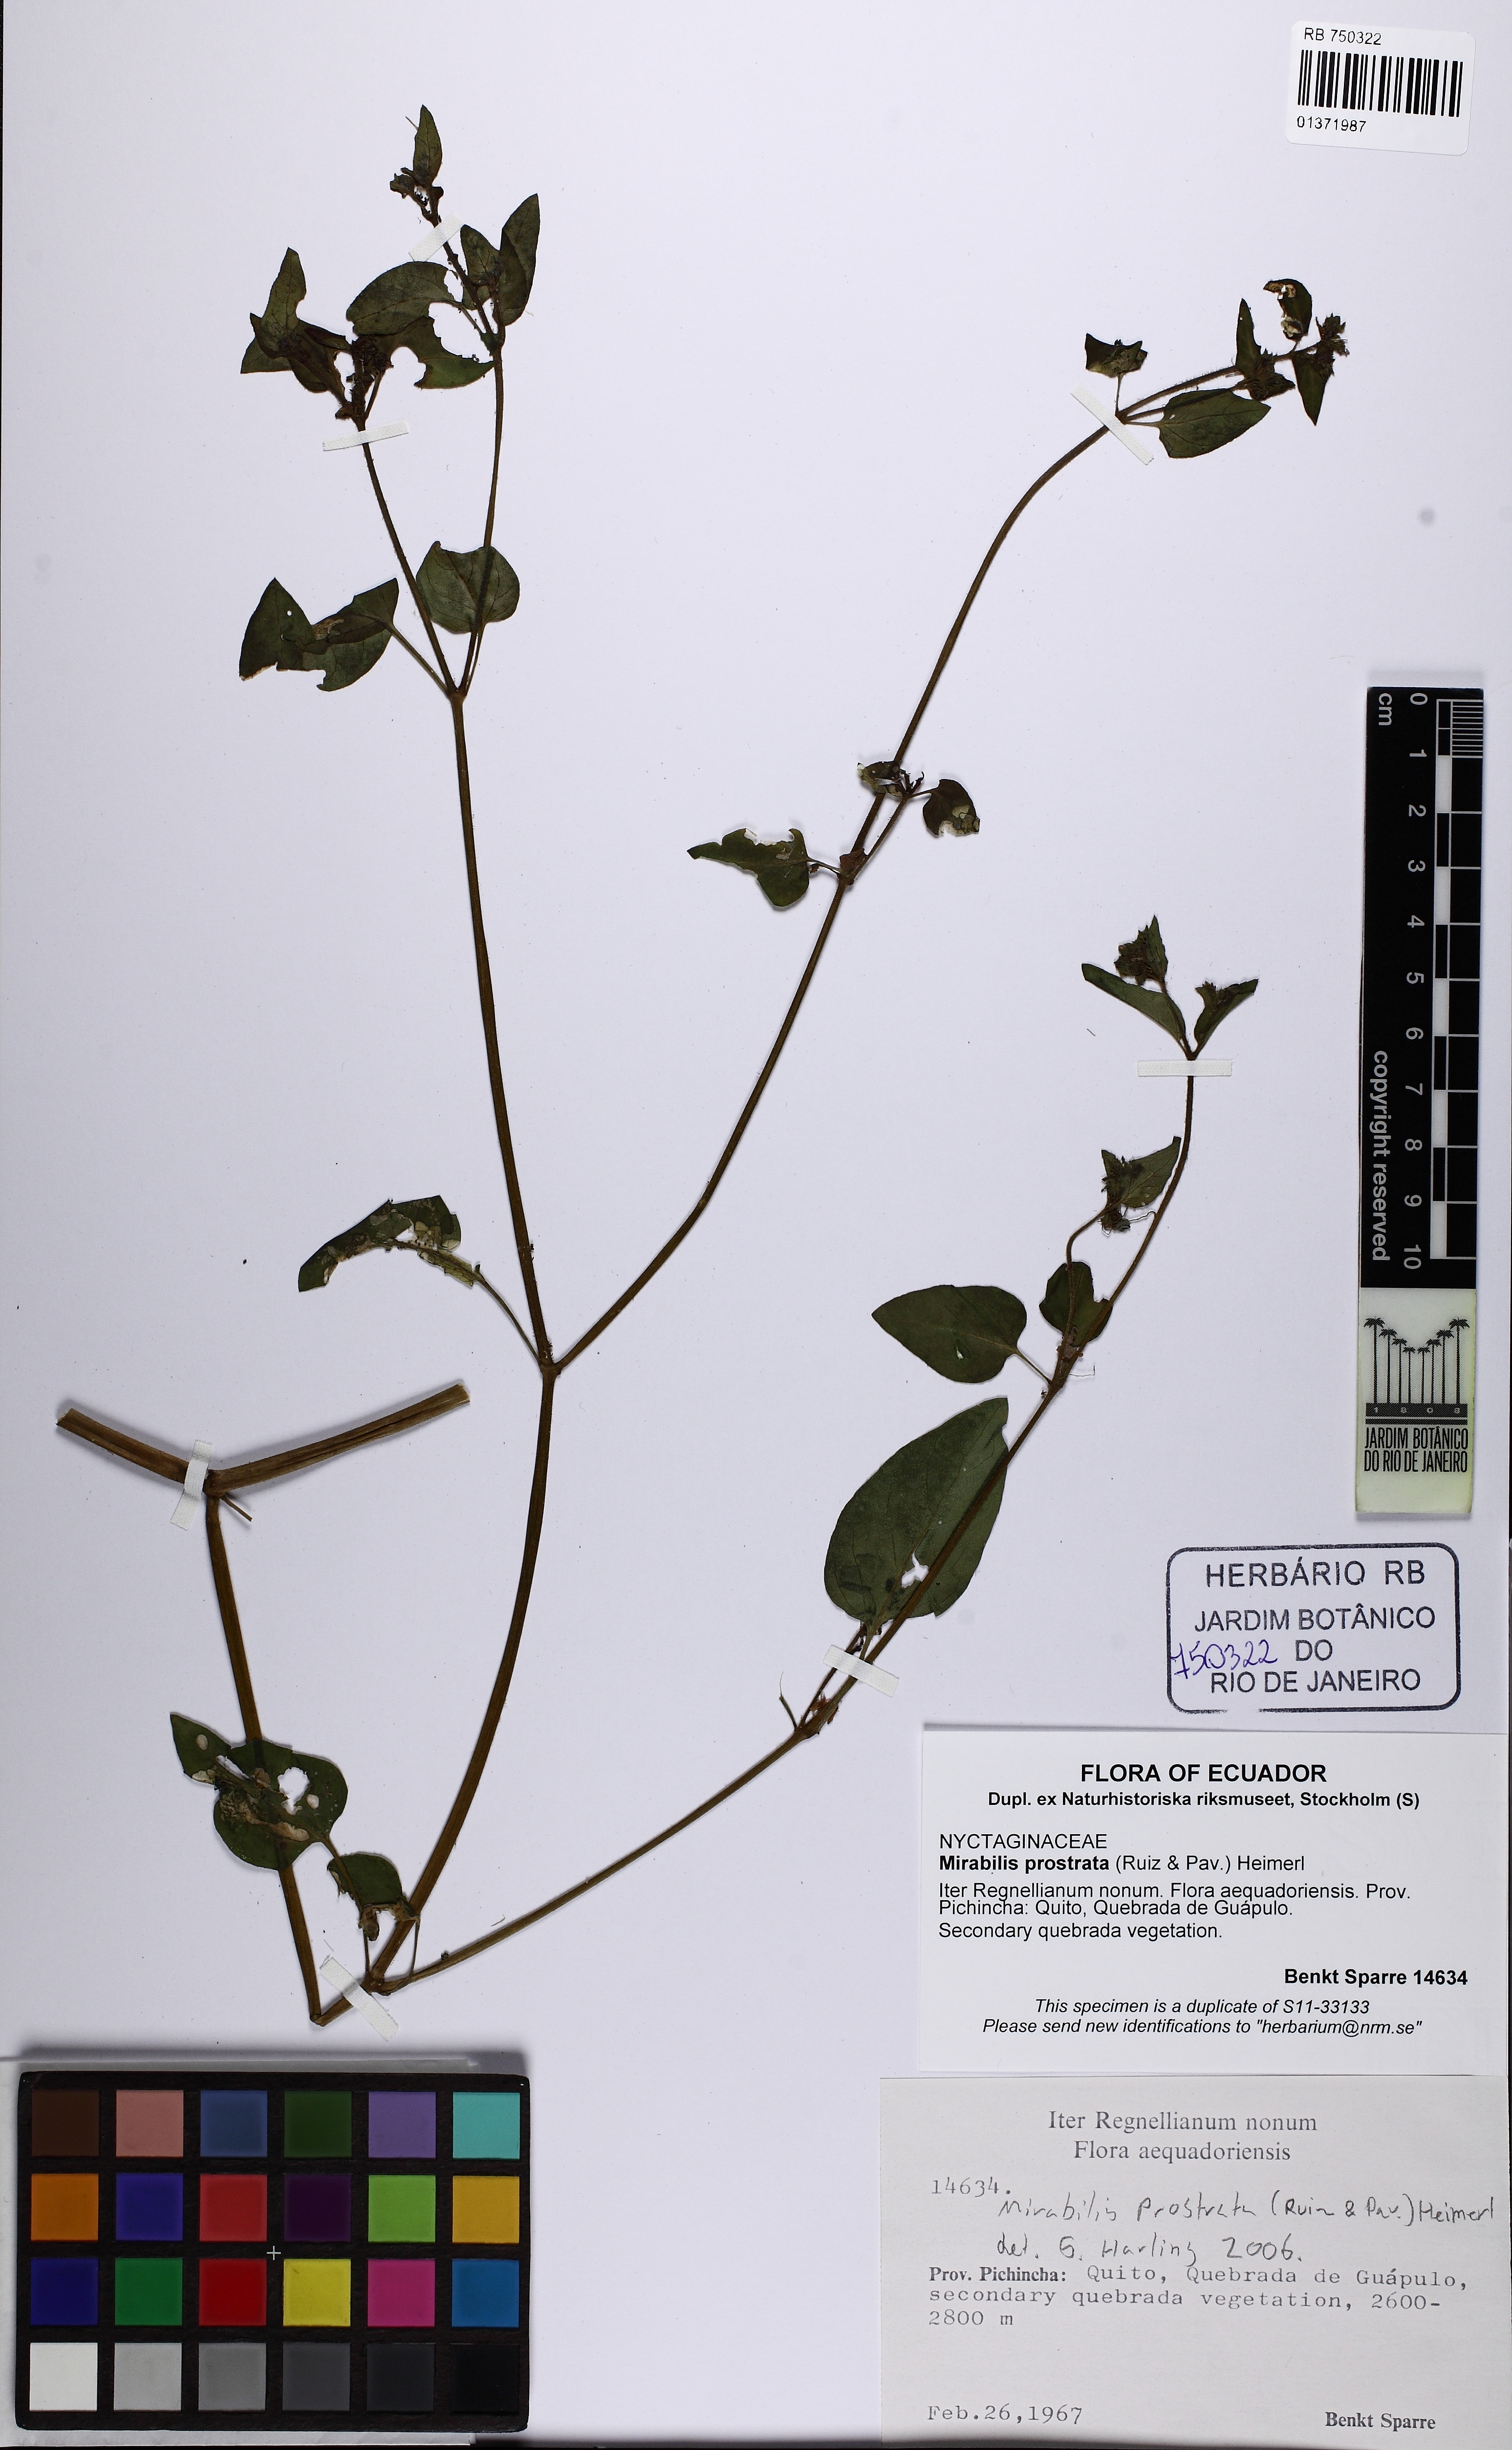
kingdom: Plantae
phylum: Tracheophyta
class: Magnoliopsida
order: Caryophyllales
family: Nyctaginaceae
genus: Mirabilis
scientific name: Mirabilis prostrata
